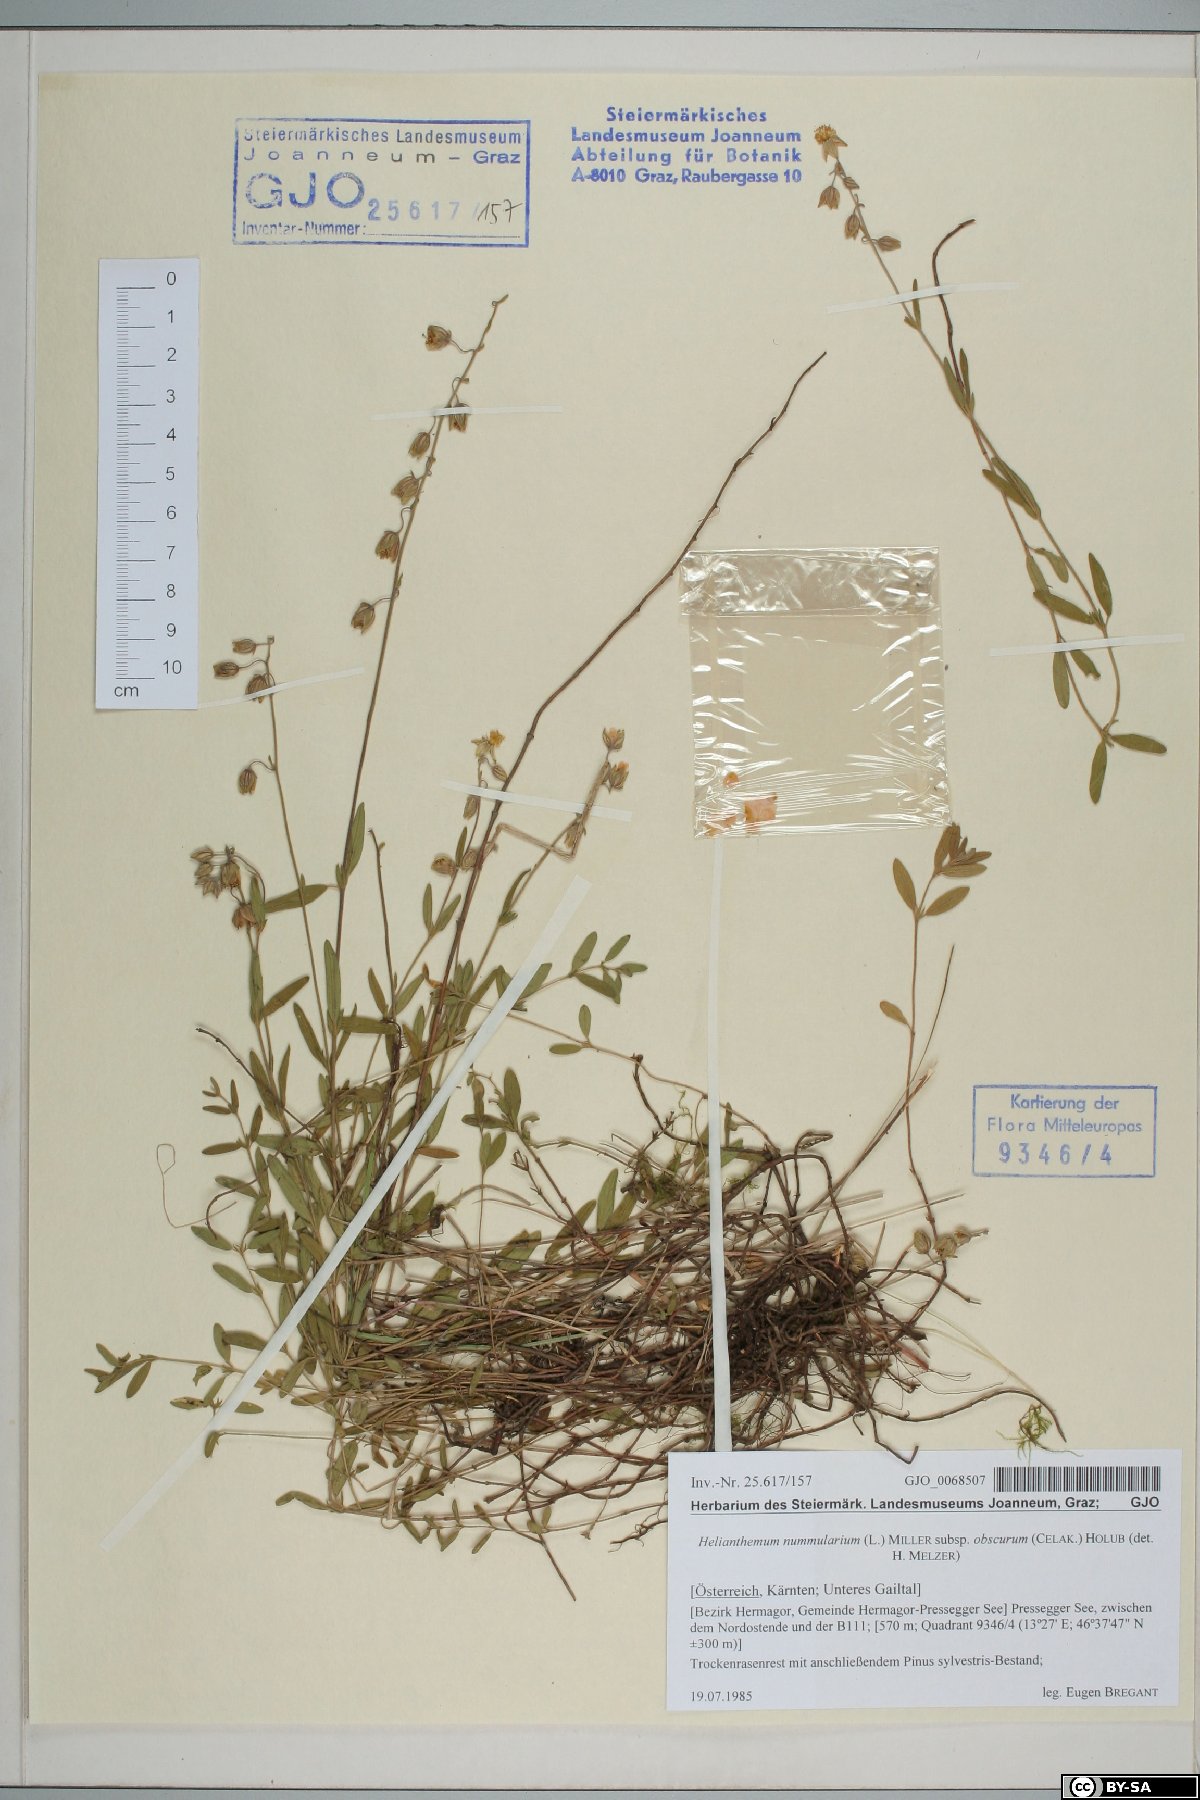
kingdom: Plantae
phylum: Tracheophyta
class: Magnoliopsida
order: Malvales
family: Cistaceae
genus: Helianthemum
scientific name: Helianthemum nummularium
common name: Common rock-rose
